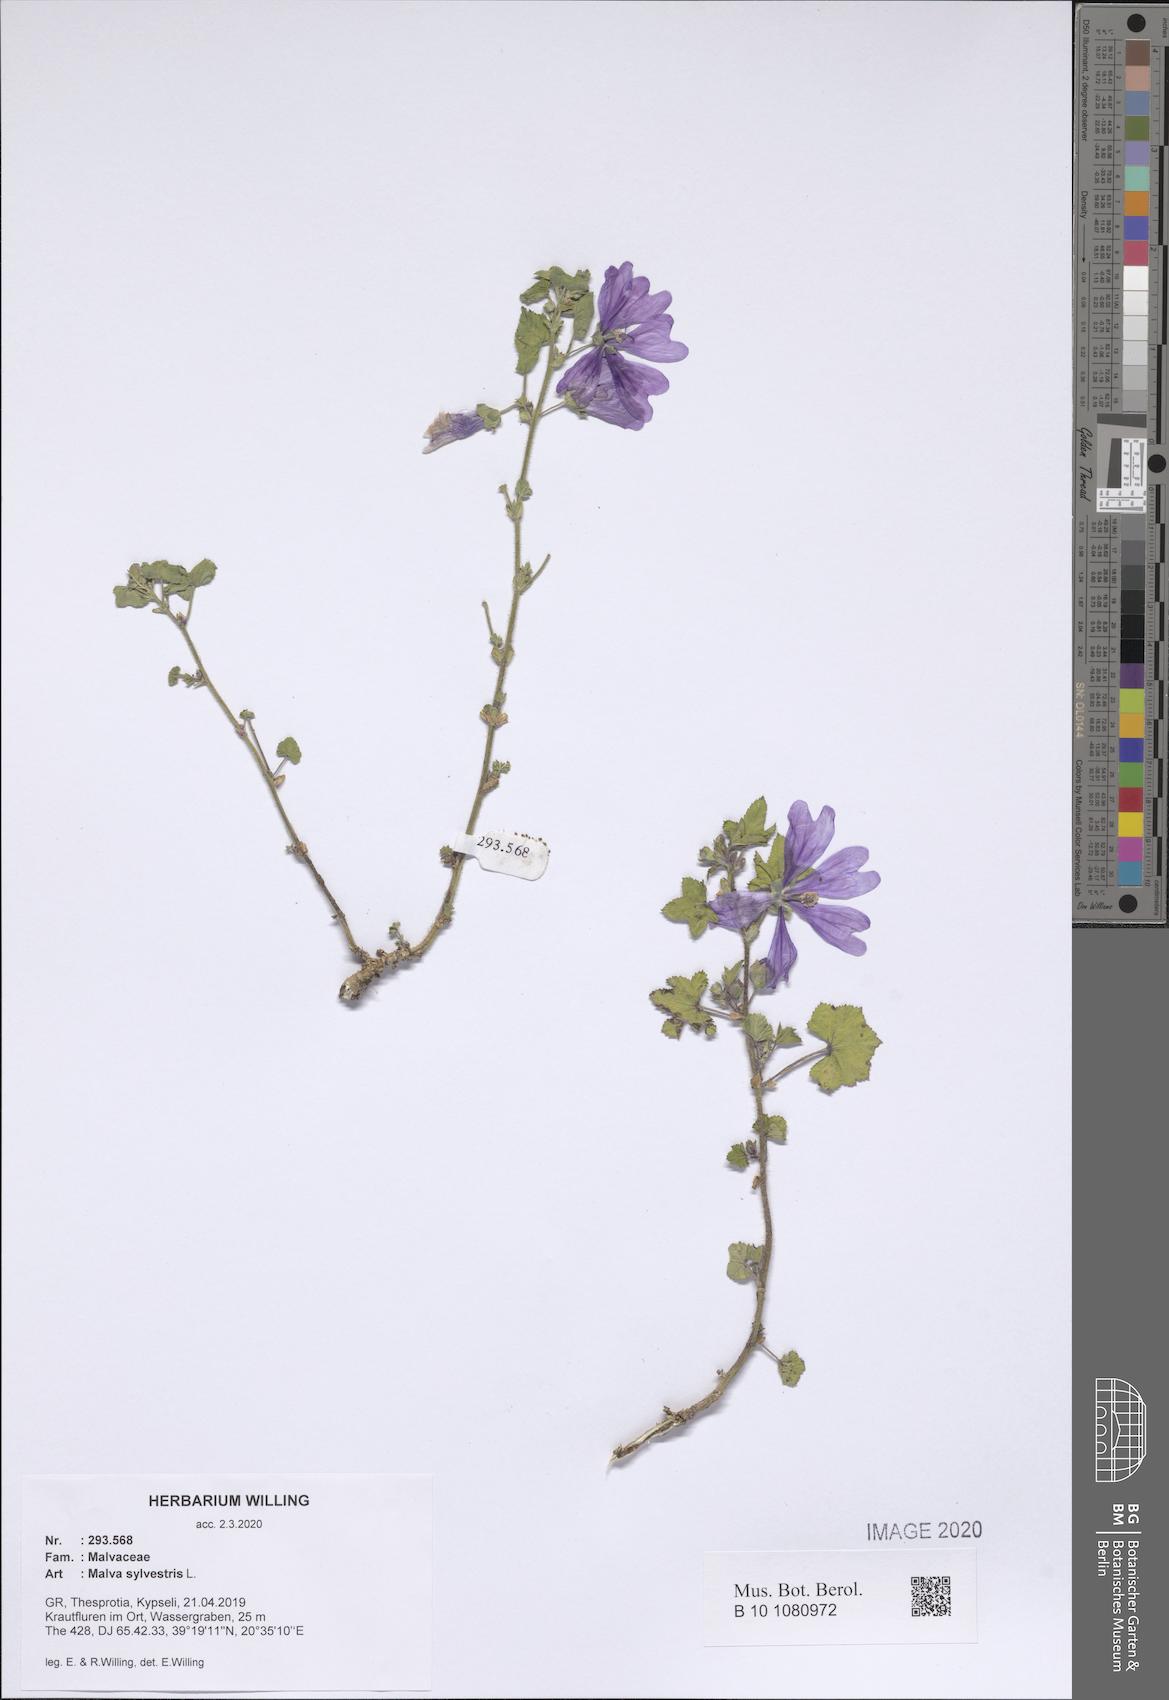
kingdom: Plantae
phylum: Tracheophyta
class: Magnoliopsida
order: Malvales
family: Malvaceae
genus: Malva
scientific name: Malva sylvestris
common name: Common mallow
